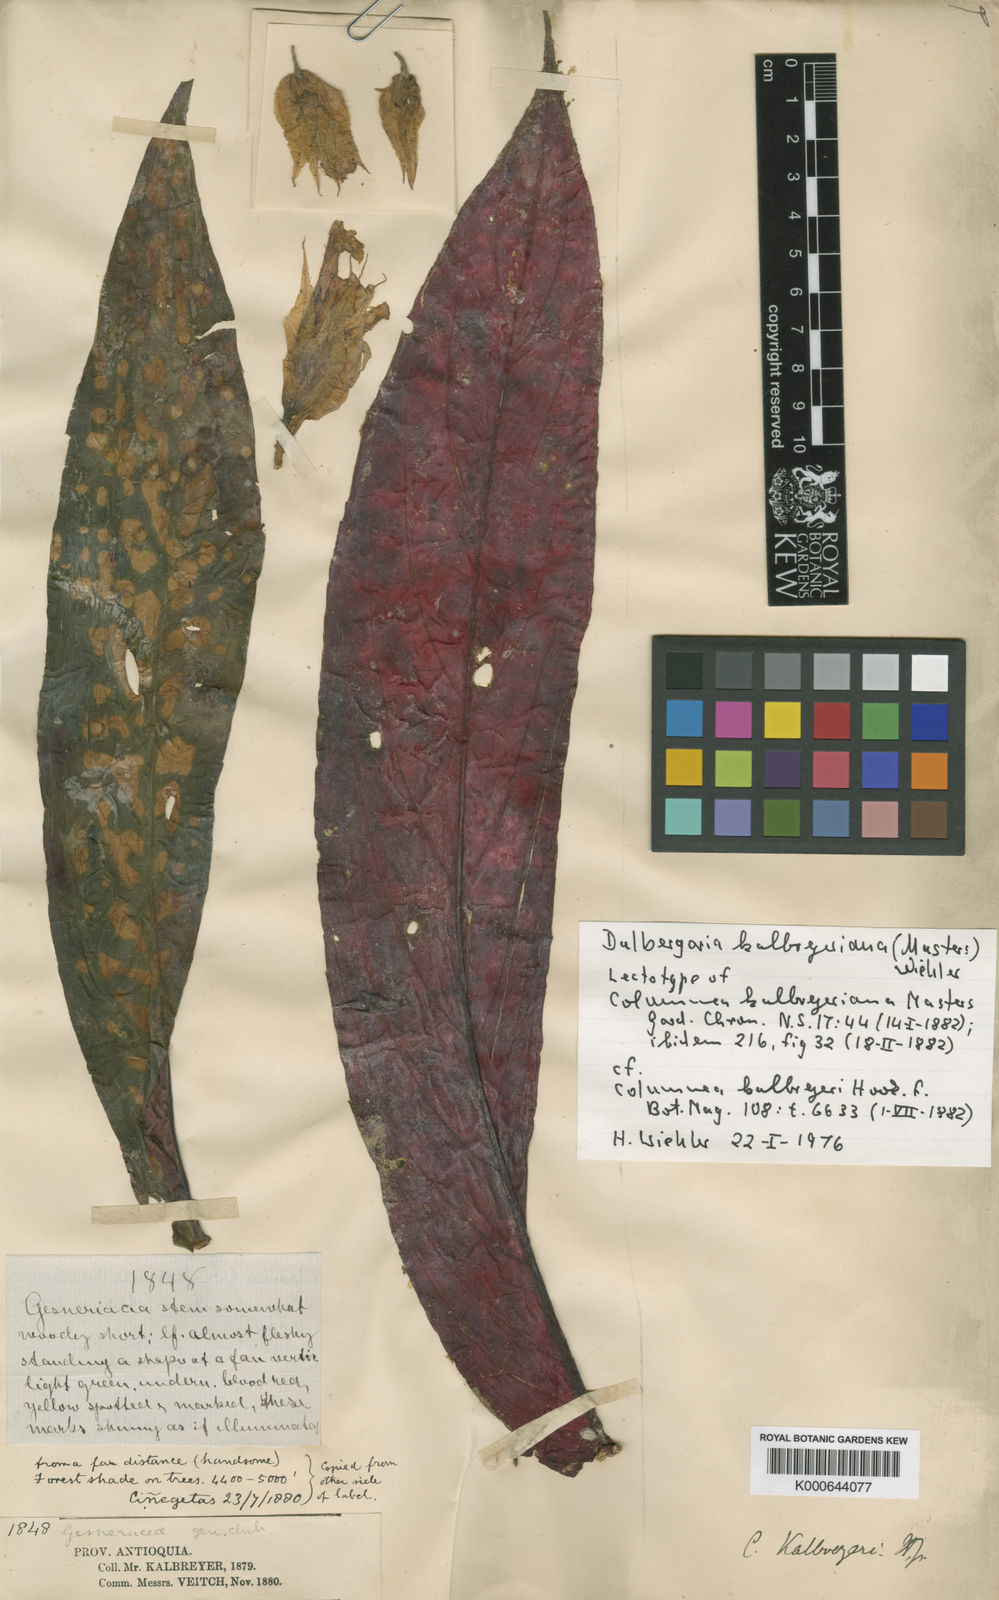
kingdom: Plantae
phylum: Tracheophyta
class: Magnoliopsida
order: Lamiales
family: Gesneriaceae
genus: Columnea
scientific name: Columnea kalbreyeriana
